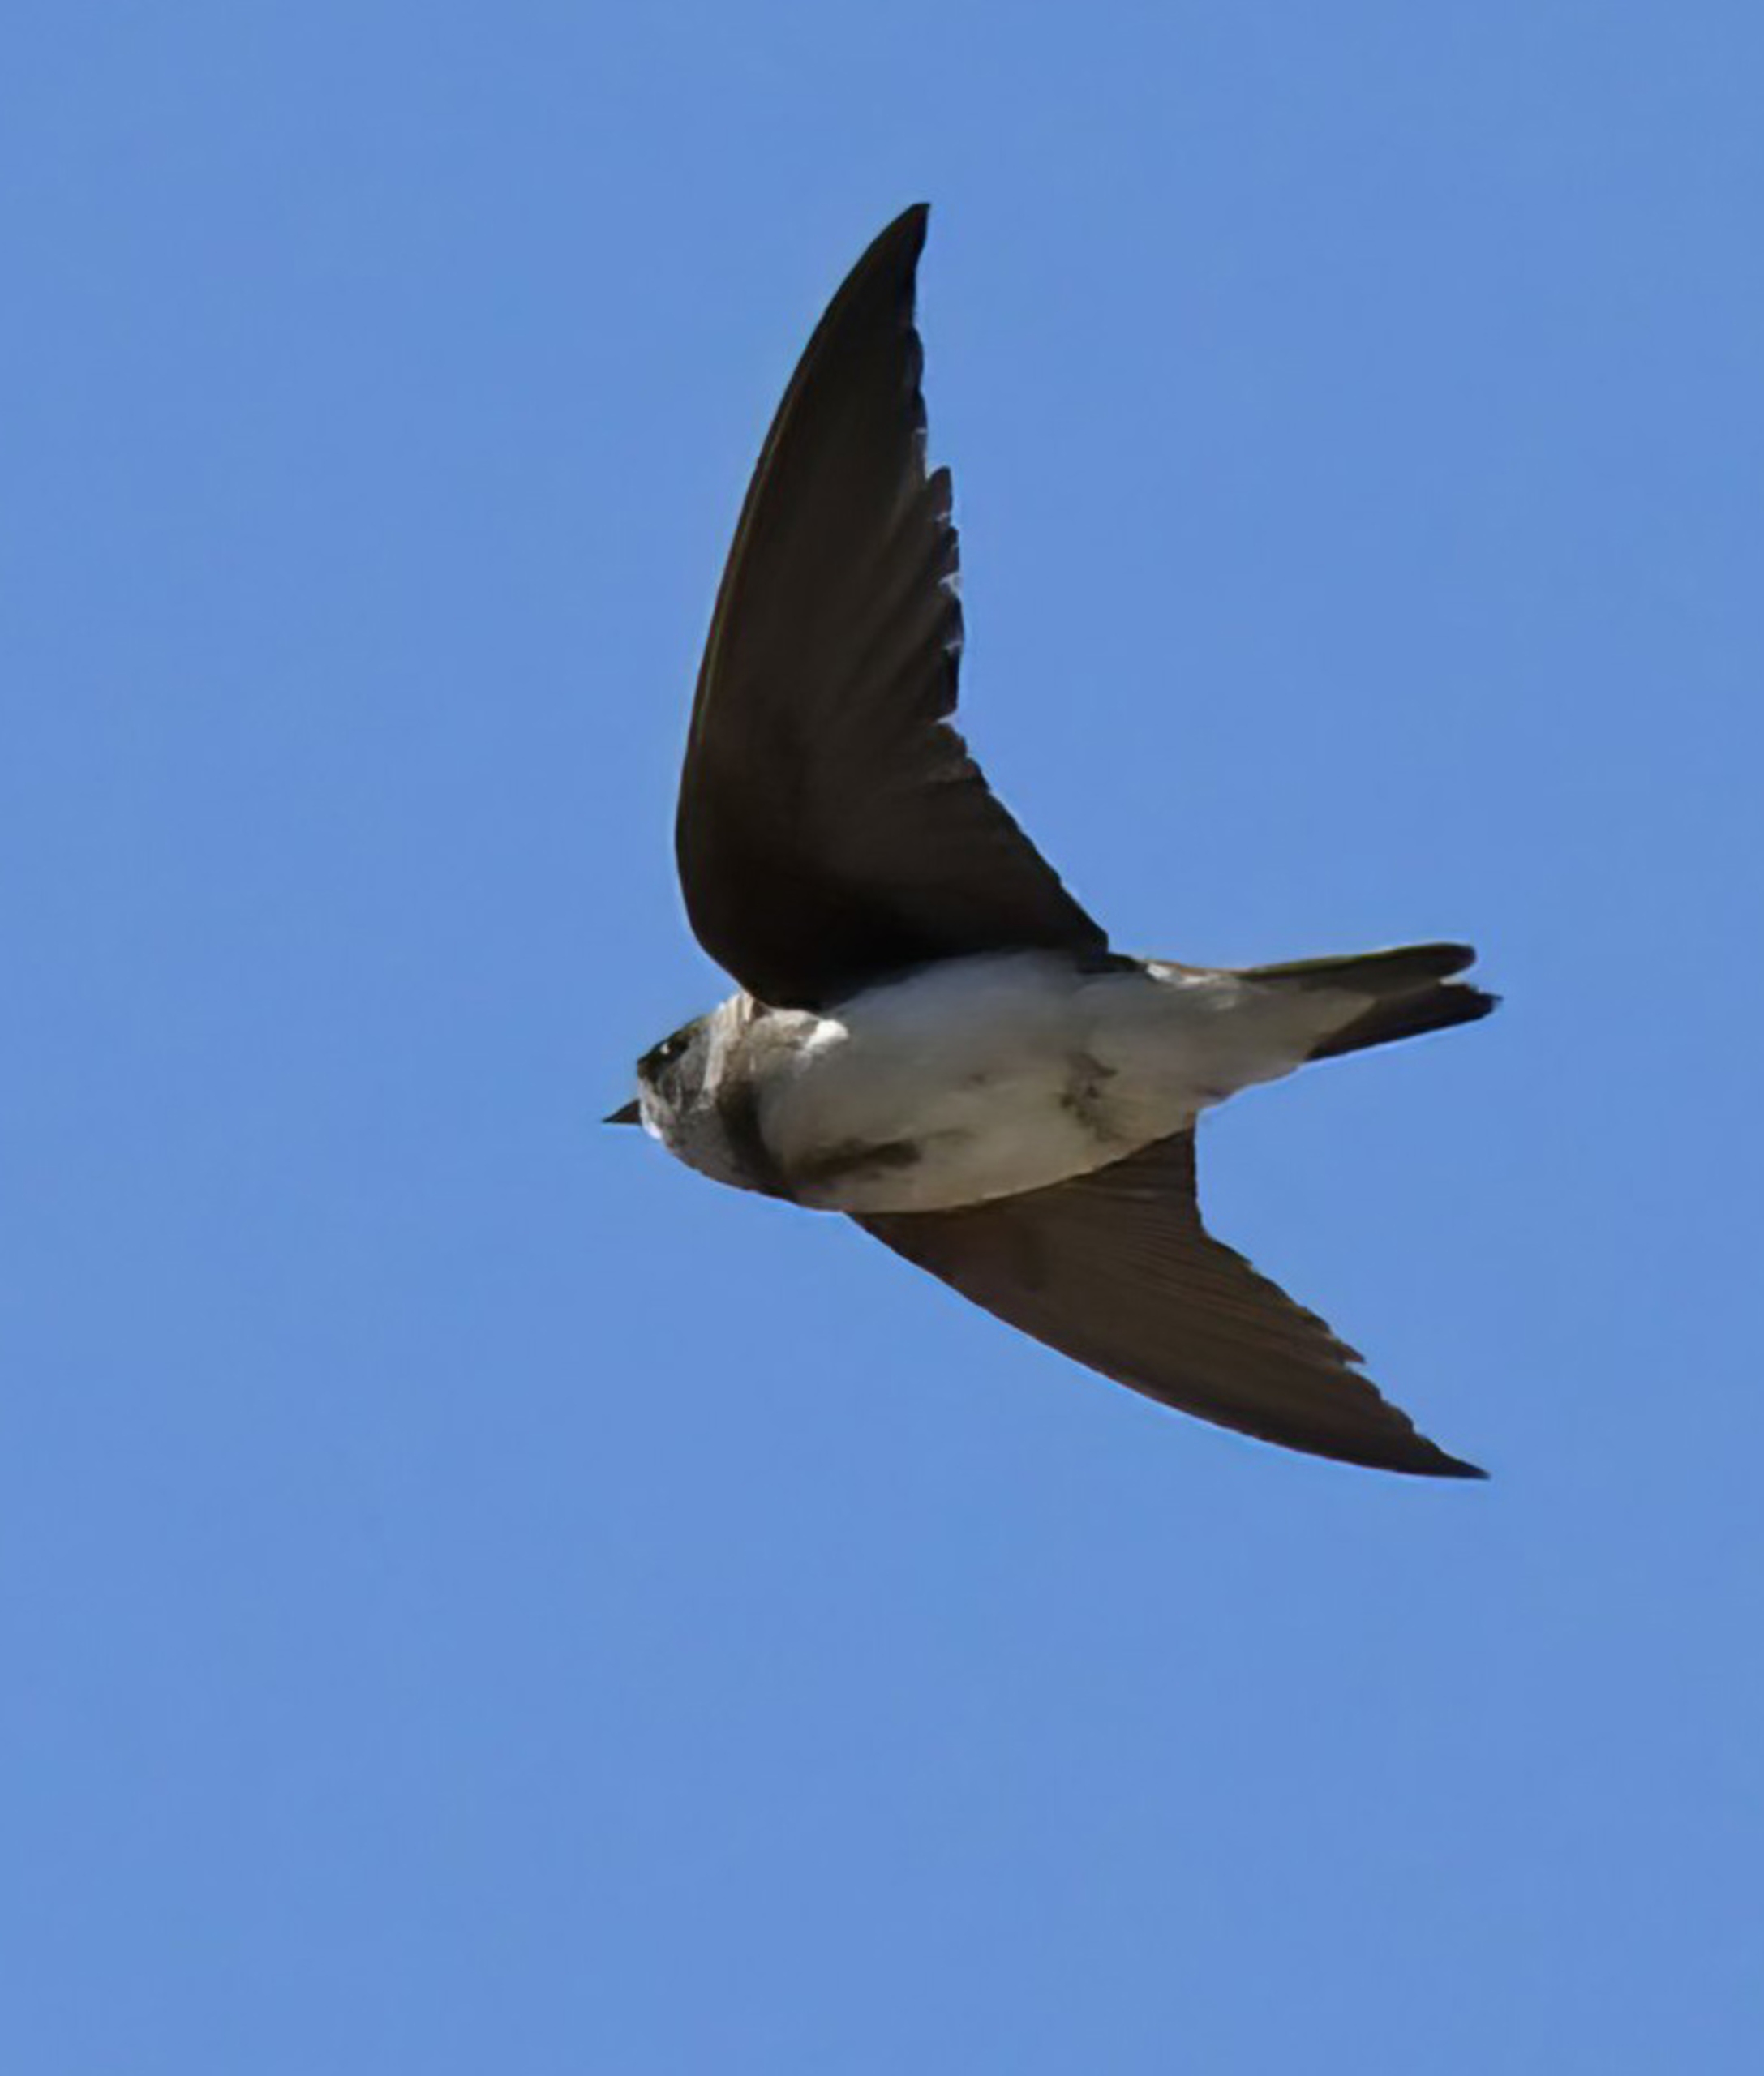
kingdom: Animalia
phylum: Chordata
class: Aves
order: Passeriformes
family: Hirundinidae
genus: Riparia
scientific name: Riparia riparia
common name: Digesvale
